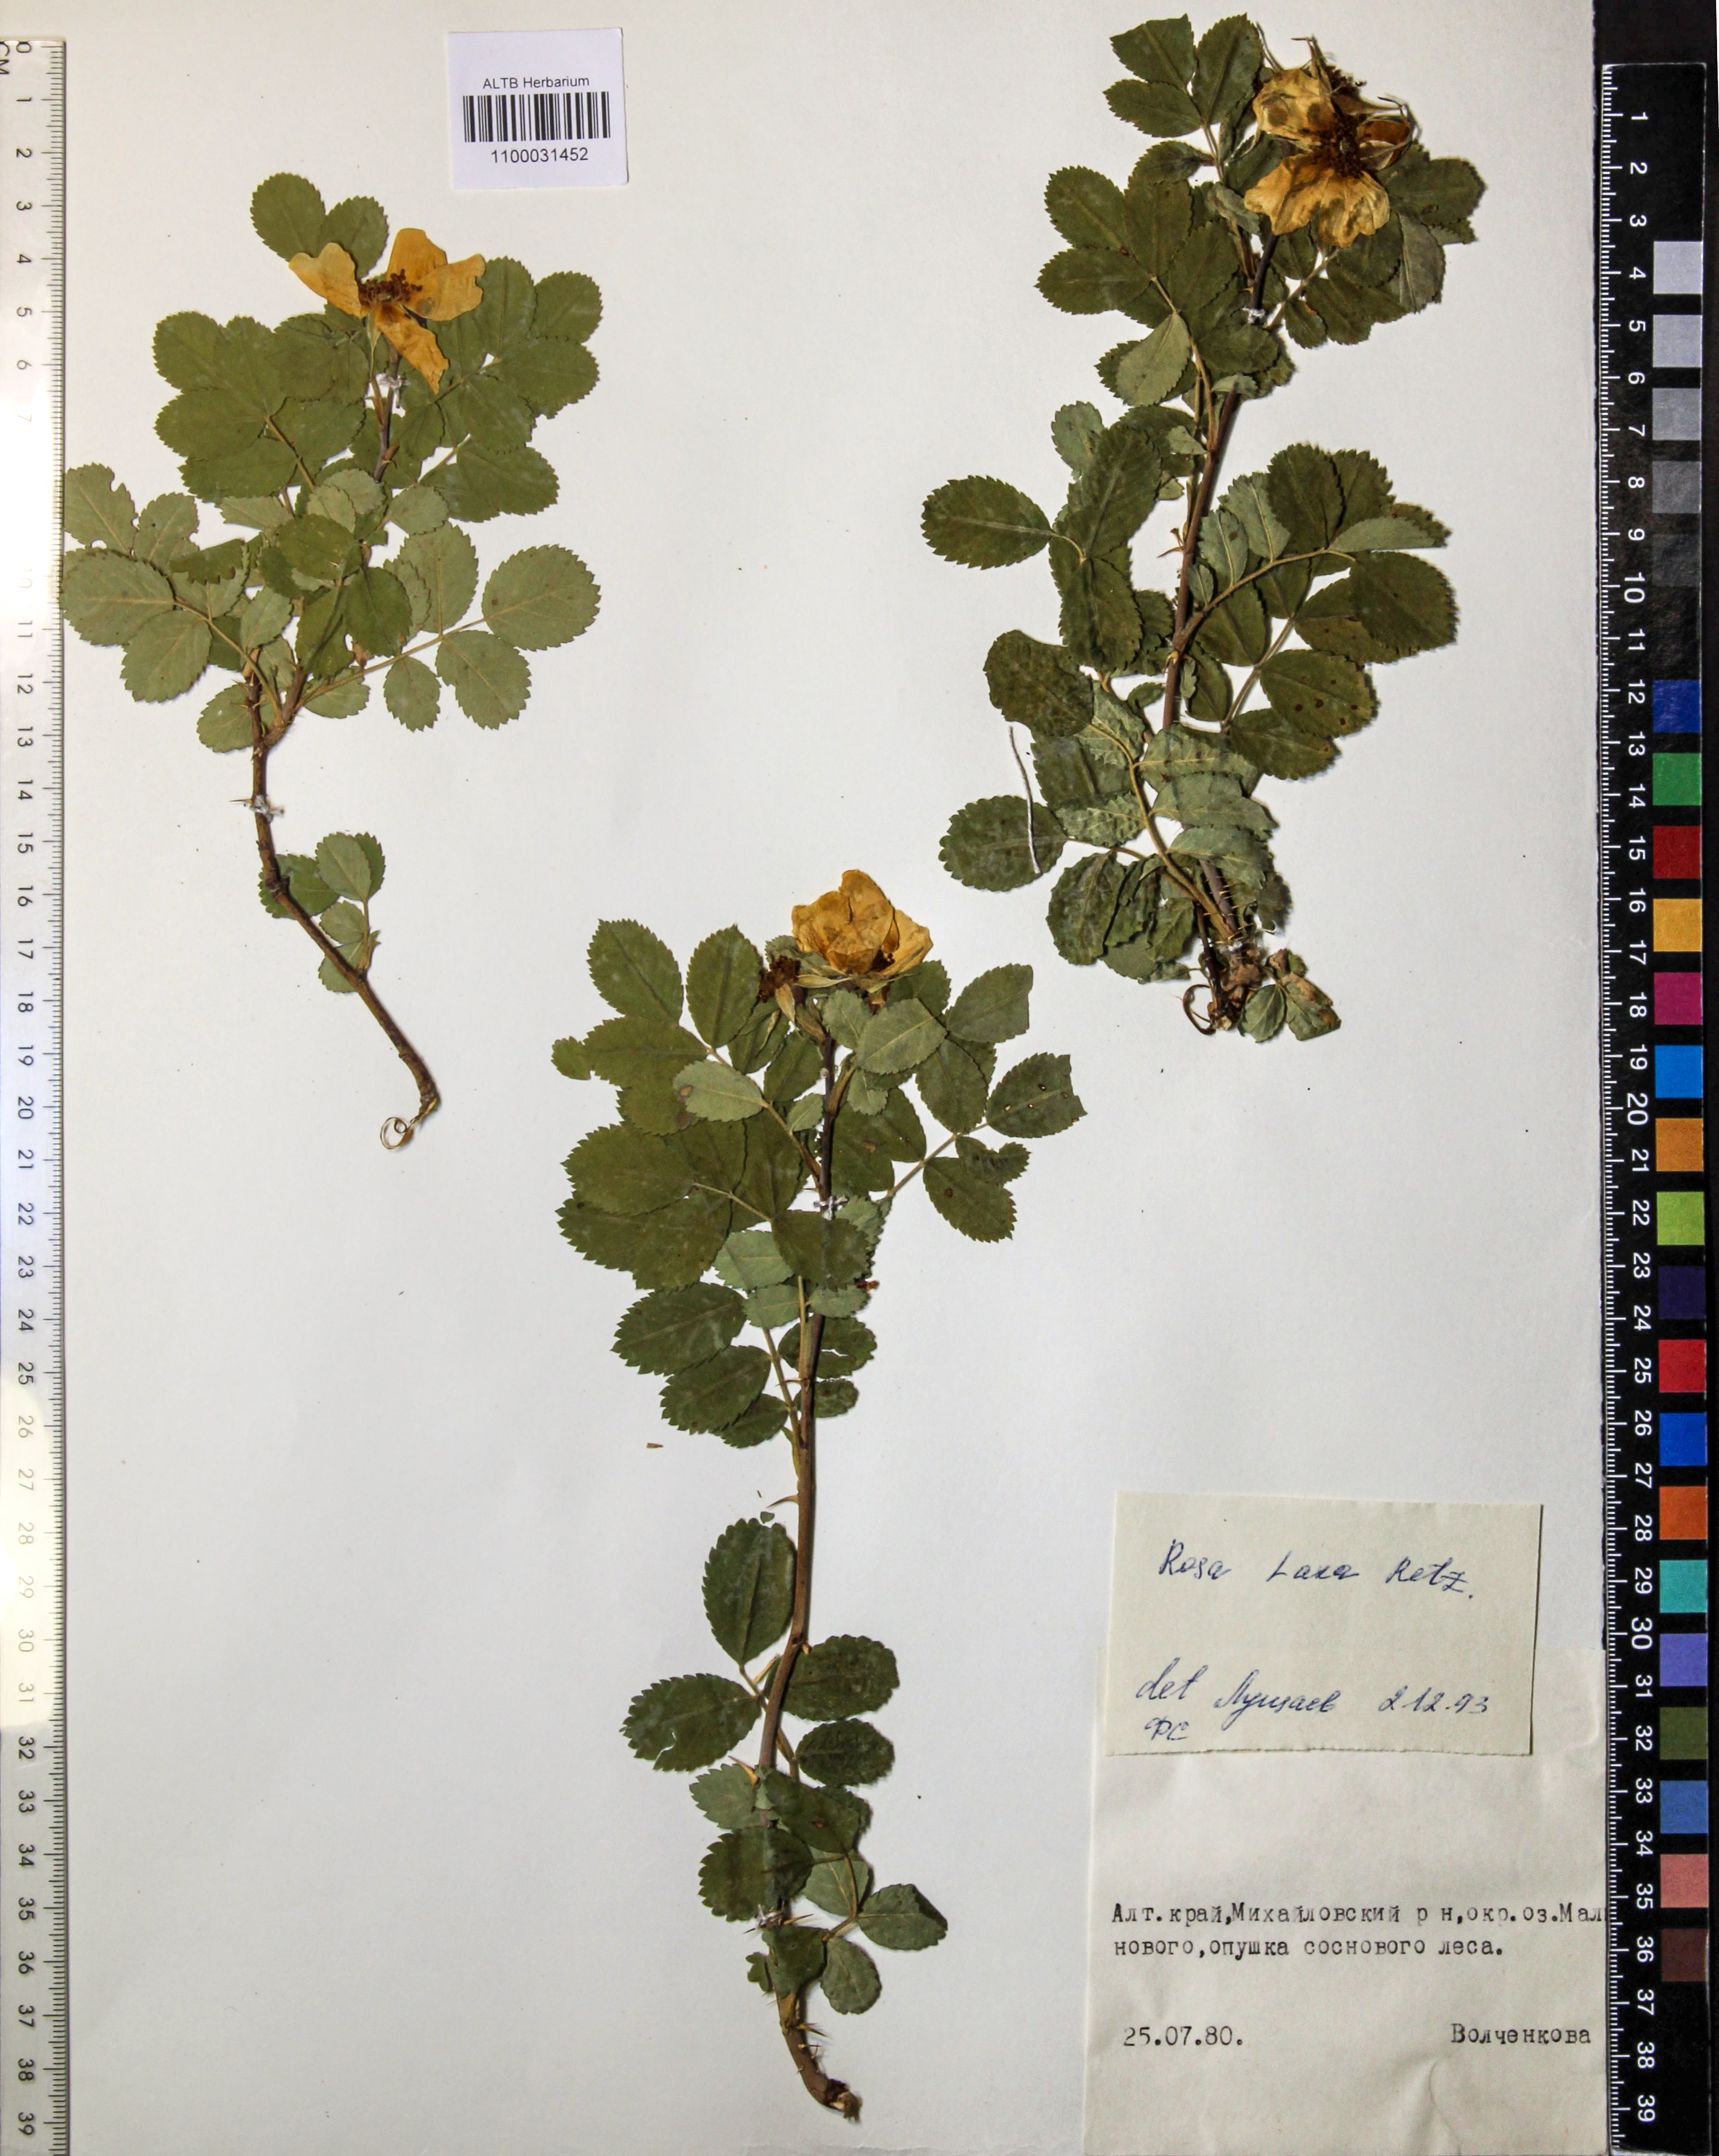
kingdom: Plantae
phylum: Tracheophyta
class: Magnoliopsida
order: Rosales
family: Rosaceae
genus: Rosa
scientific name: Rosa laxa
